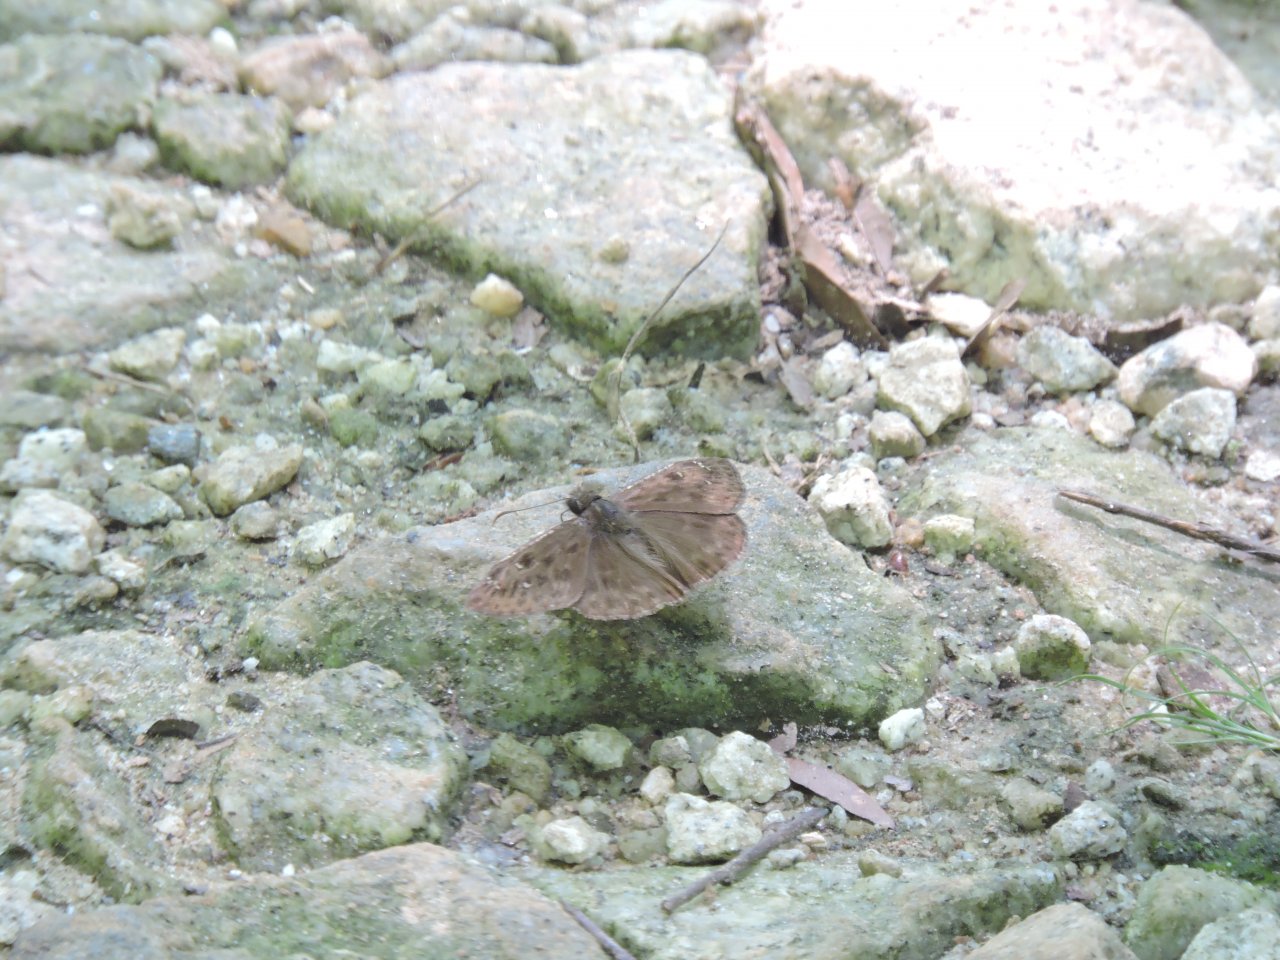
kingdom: Animalia
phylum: Arthropoda
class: Insecta
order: Lepidoptera
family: Hesperiidae
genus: Gesta
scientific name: Gesta
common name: Horace's Duskywing
